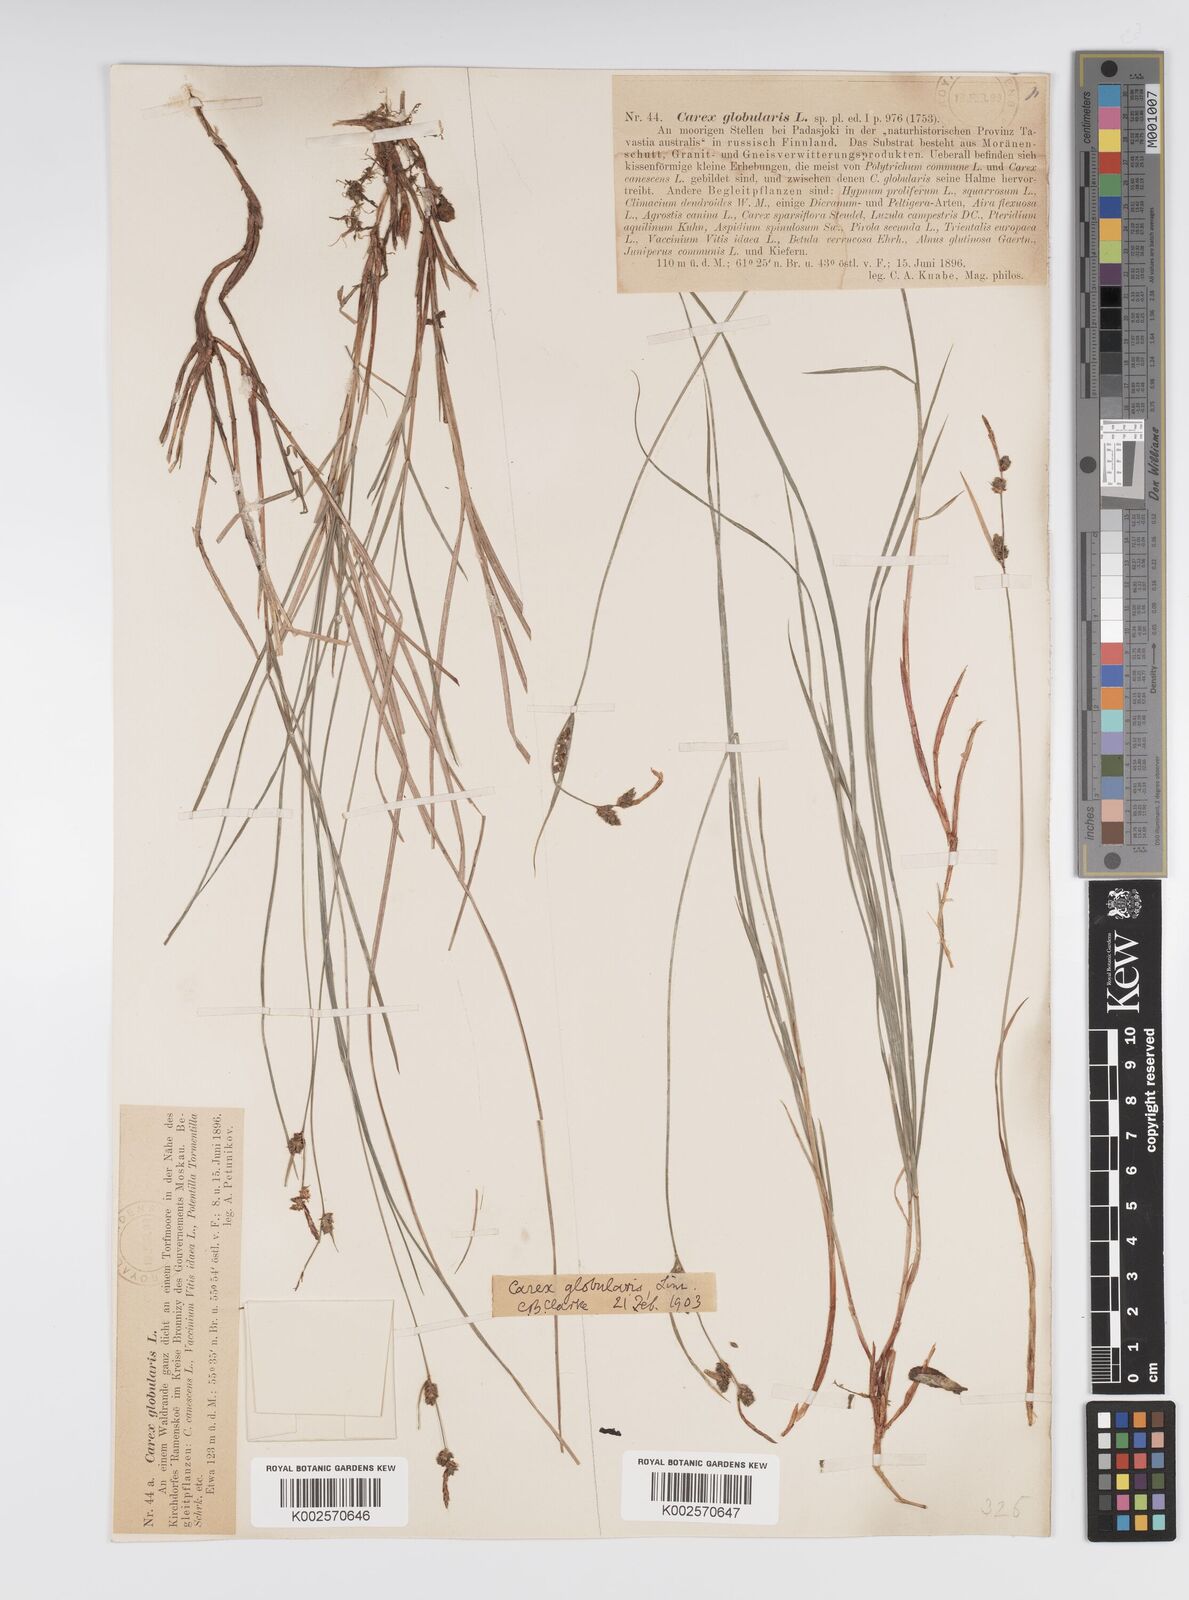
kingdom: Plantae
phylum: Tracheophyta
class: Liliopsida
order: Poales
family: Cyperaceae
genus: Carex
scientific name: Carex globularis
